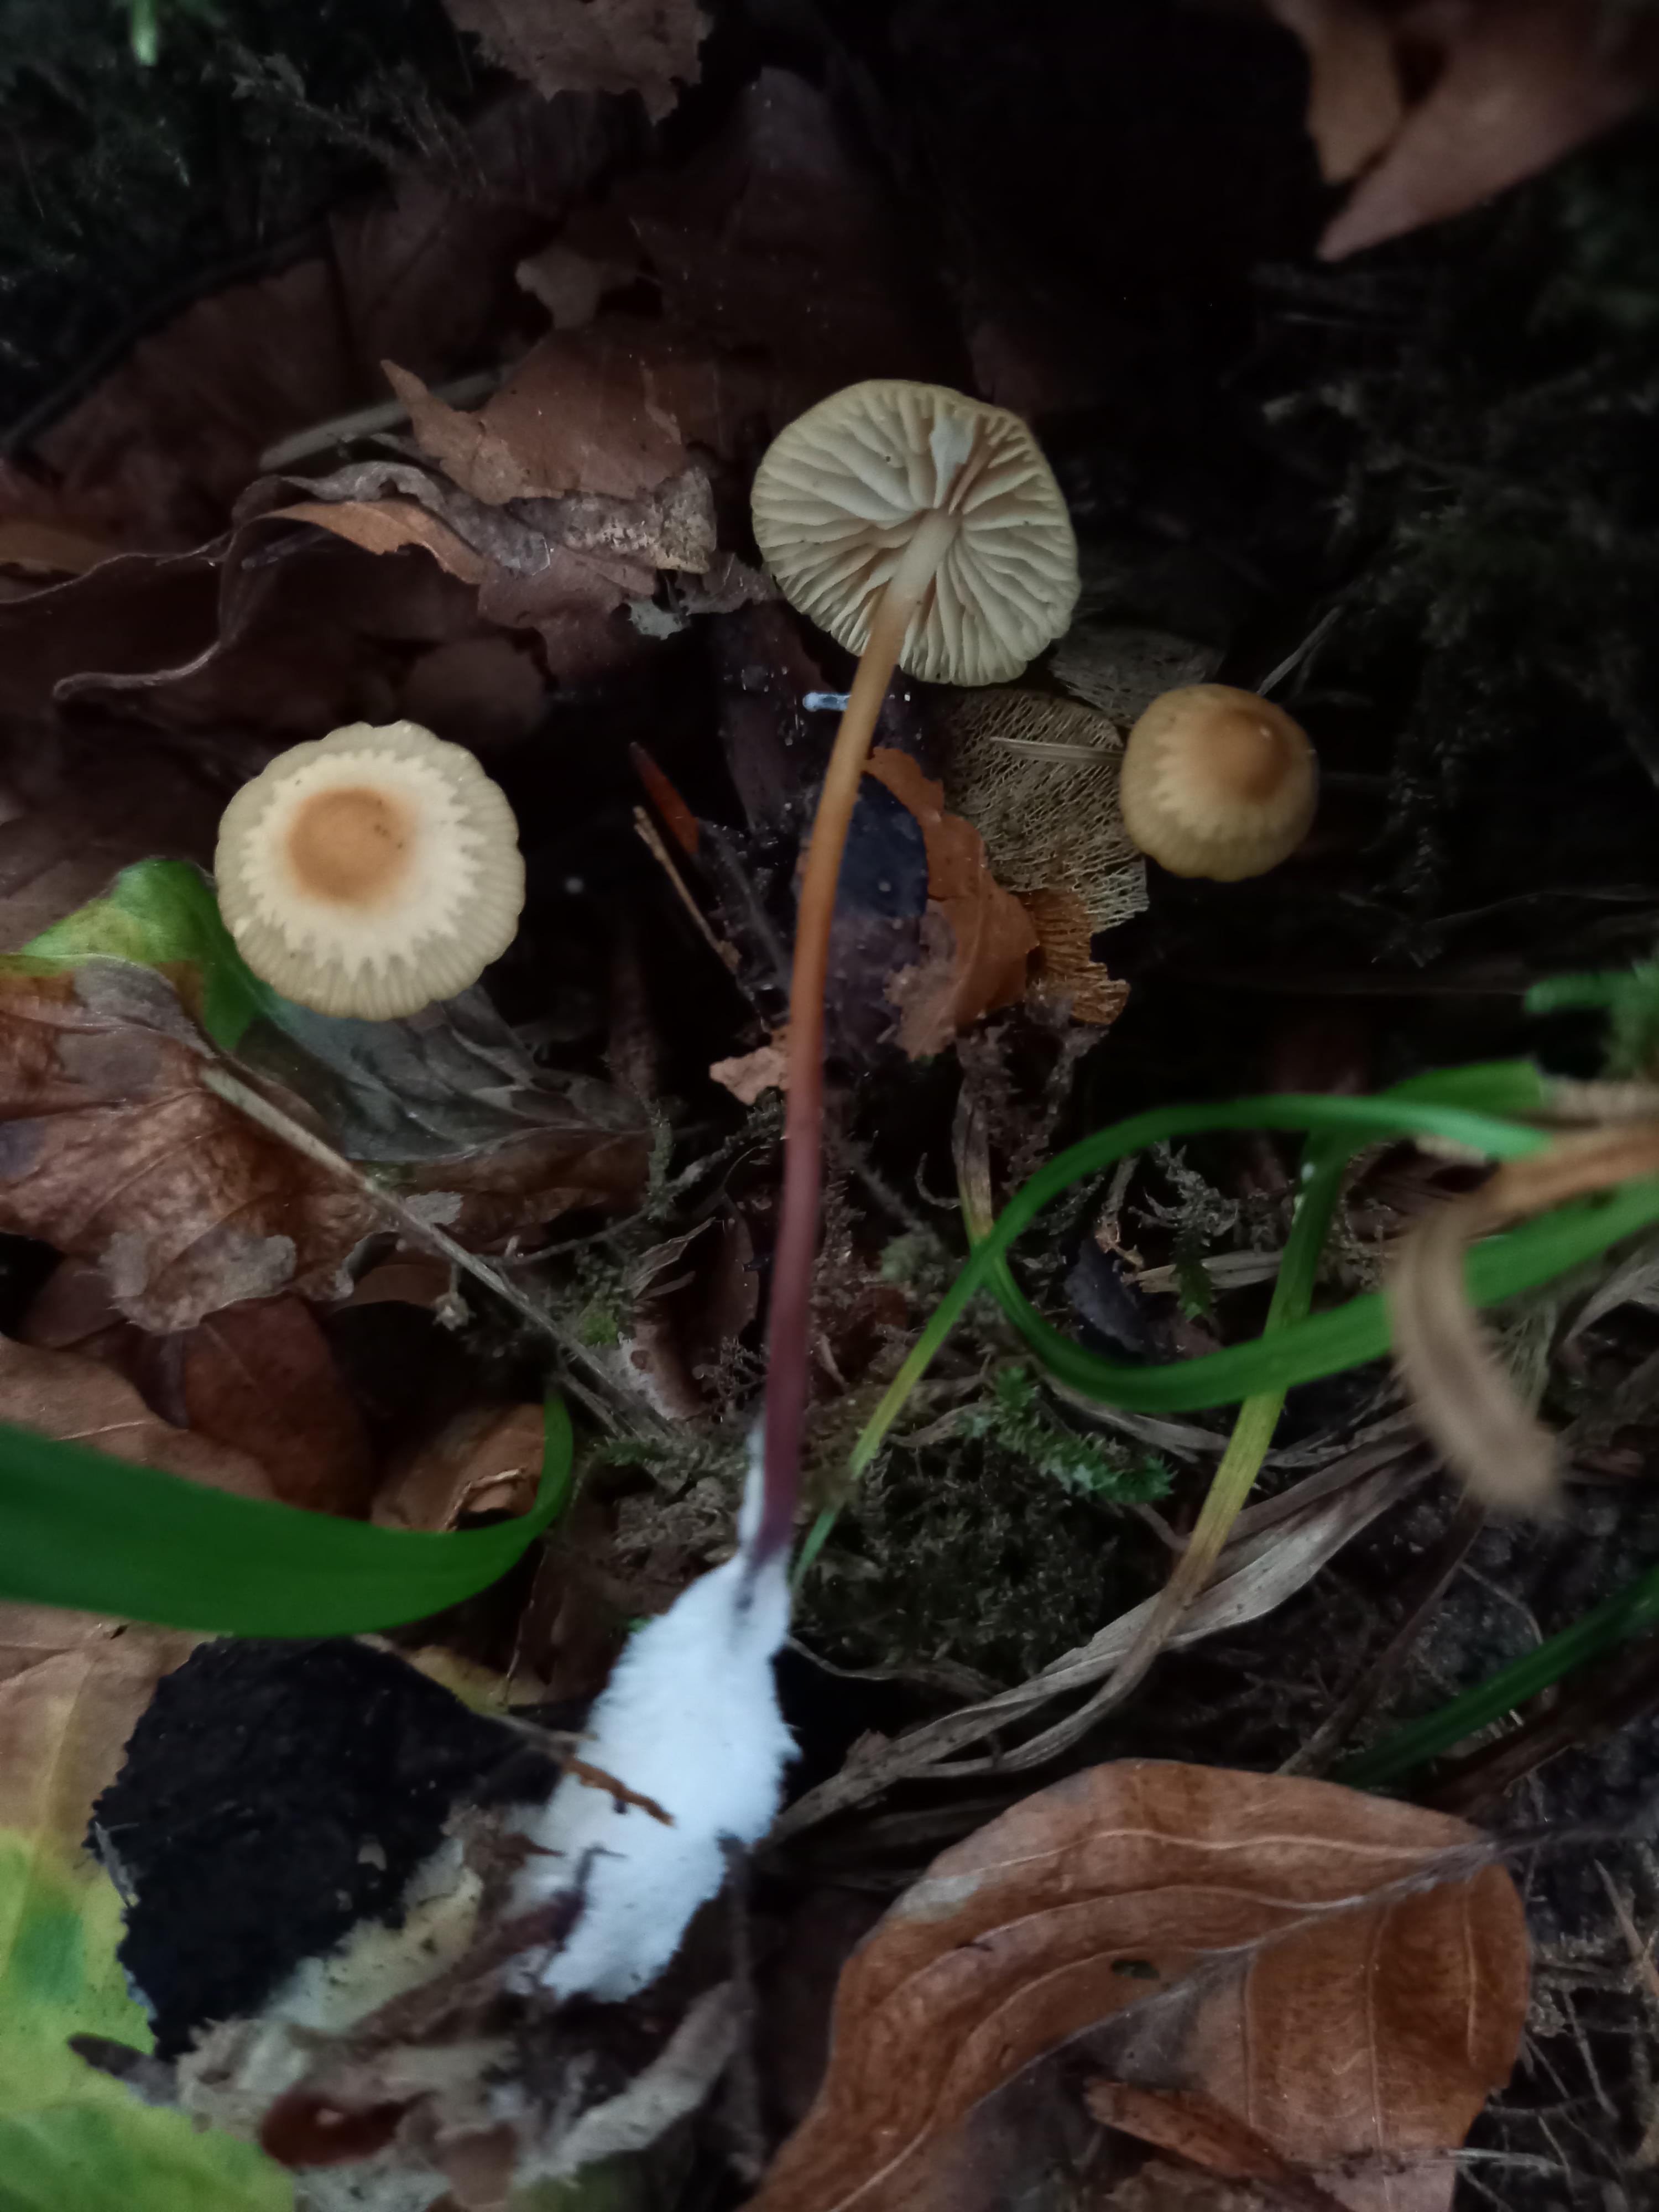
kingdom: Fungi
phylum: Basidiomycota
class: Agaricomycetes
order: Agaricales
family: Marasmiaceae
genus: Marasmius
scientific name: Marasmius torquescens
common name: filtfodet bruskhat
